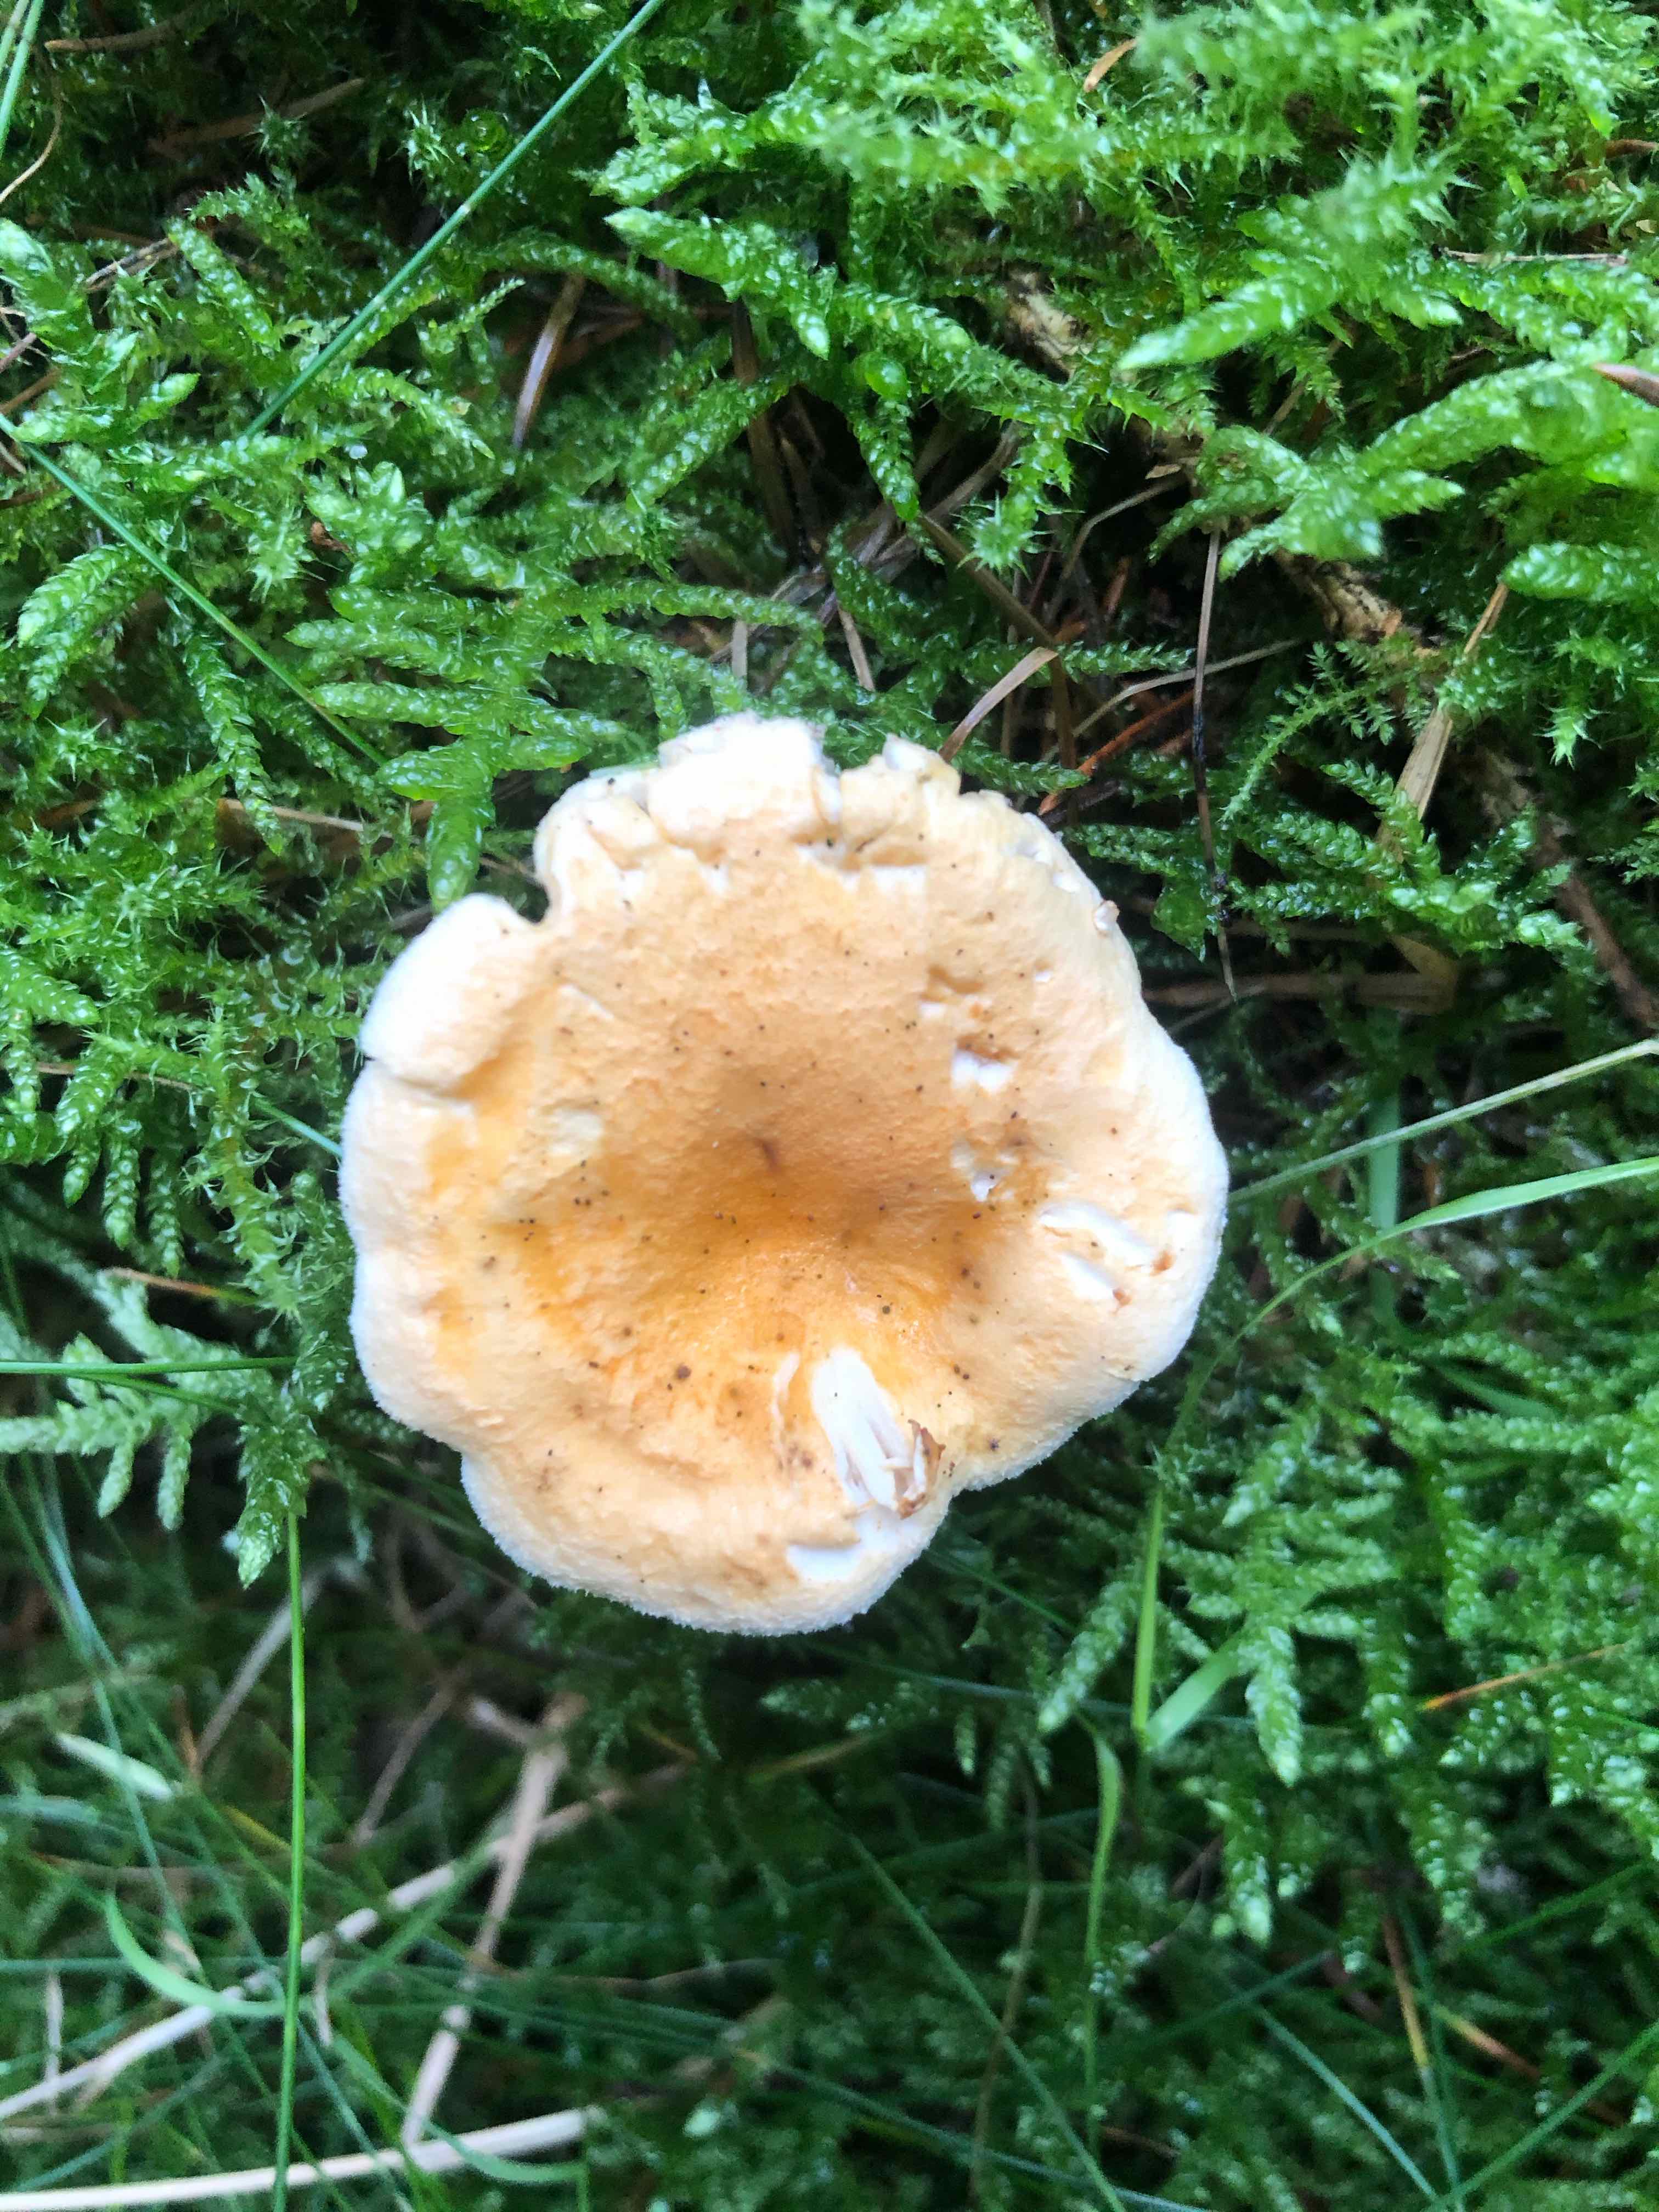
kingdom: Fungi
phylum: Basidiomycota
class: Agaricomycetes
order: Boletales
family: Hygrophoropsidaceae
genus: Hygrophoropsis
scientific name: Hygrophoropsis pallida
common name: bleg orangekantarel
